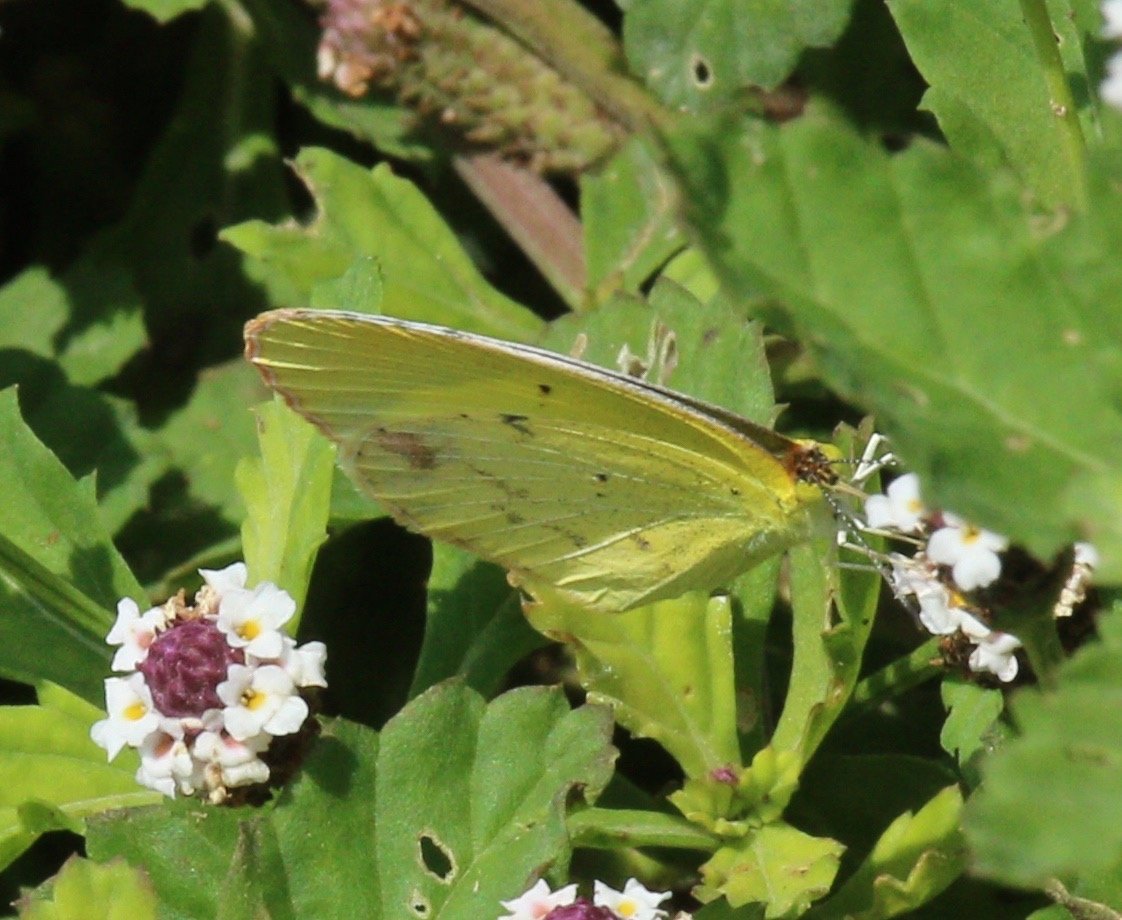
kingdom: Animalia
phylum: Arthropoda
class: Insecta
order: Lepidoptera
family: Pieridae
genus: Pyrisitia
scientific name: Pyrisitia lisa
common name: Little Yellow
